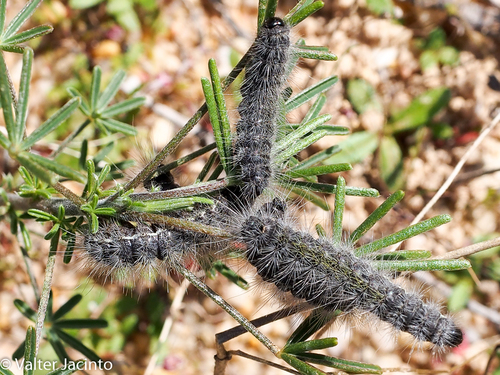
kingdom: Animalia
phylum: Arthropoda
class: Insecta
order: Lepidoptera
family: Notodontidae
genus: Thaumetopoea
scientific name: Thaumetopoea herculeana
